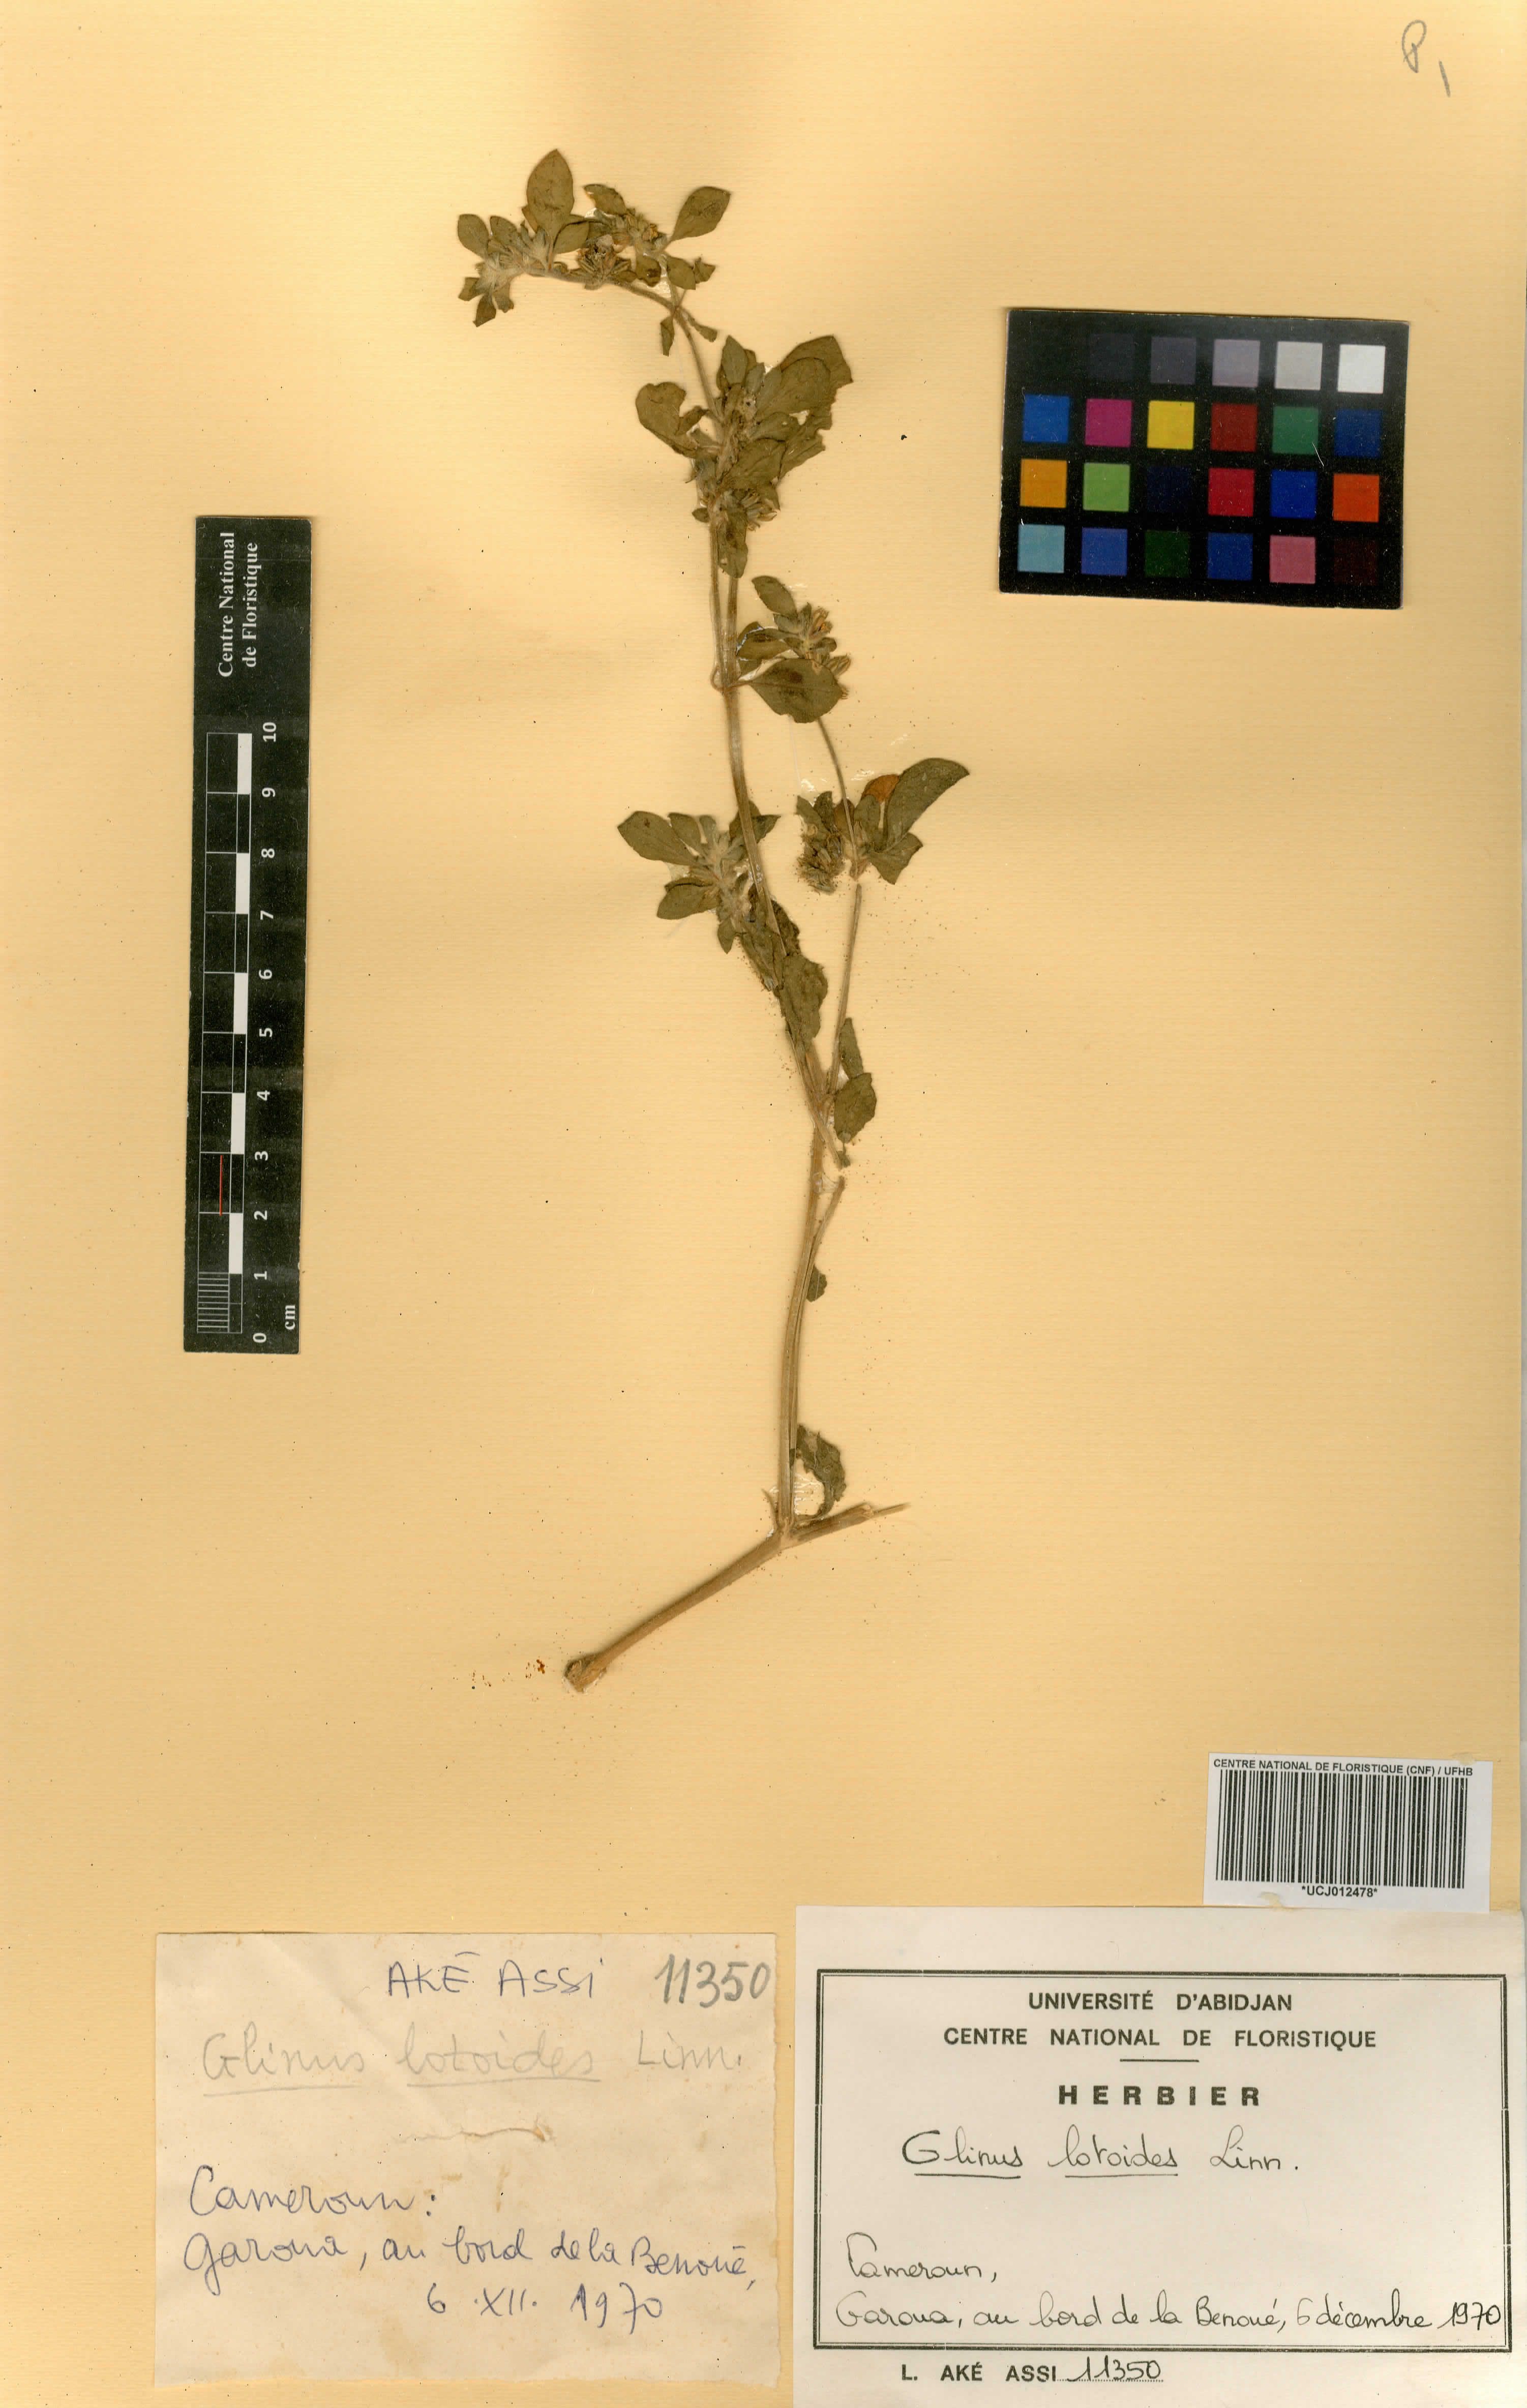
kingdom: Plantae
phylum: Tracheophyta
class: Magnoliopsida
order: Caryophyllales
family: Molluginaceae
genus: Glinus
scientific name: Glinus lotoides
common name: Lotus sweetjuice
